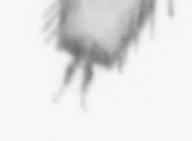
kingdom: Animalia
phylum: Arthropoda
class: Copepoda
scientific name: Copepoda
